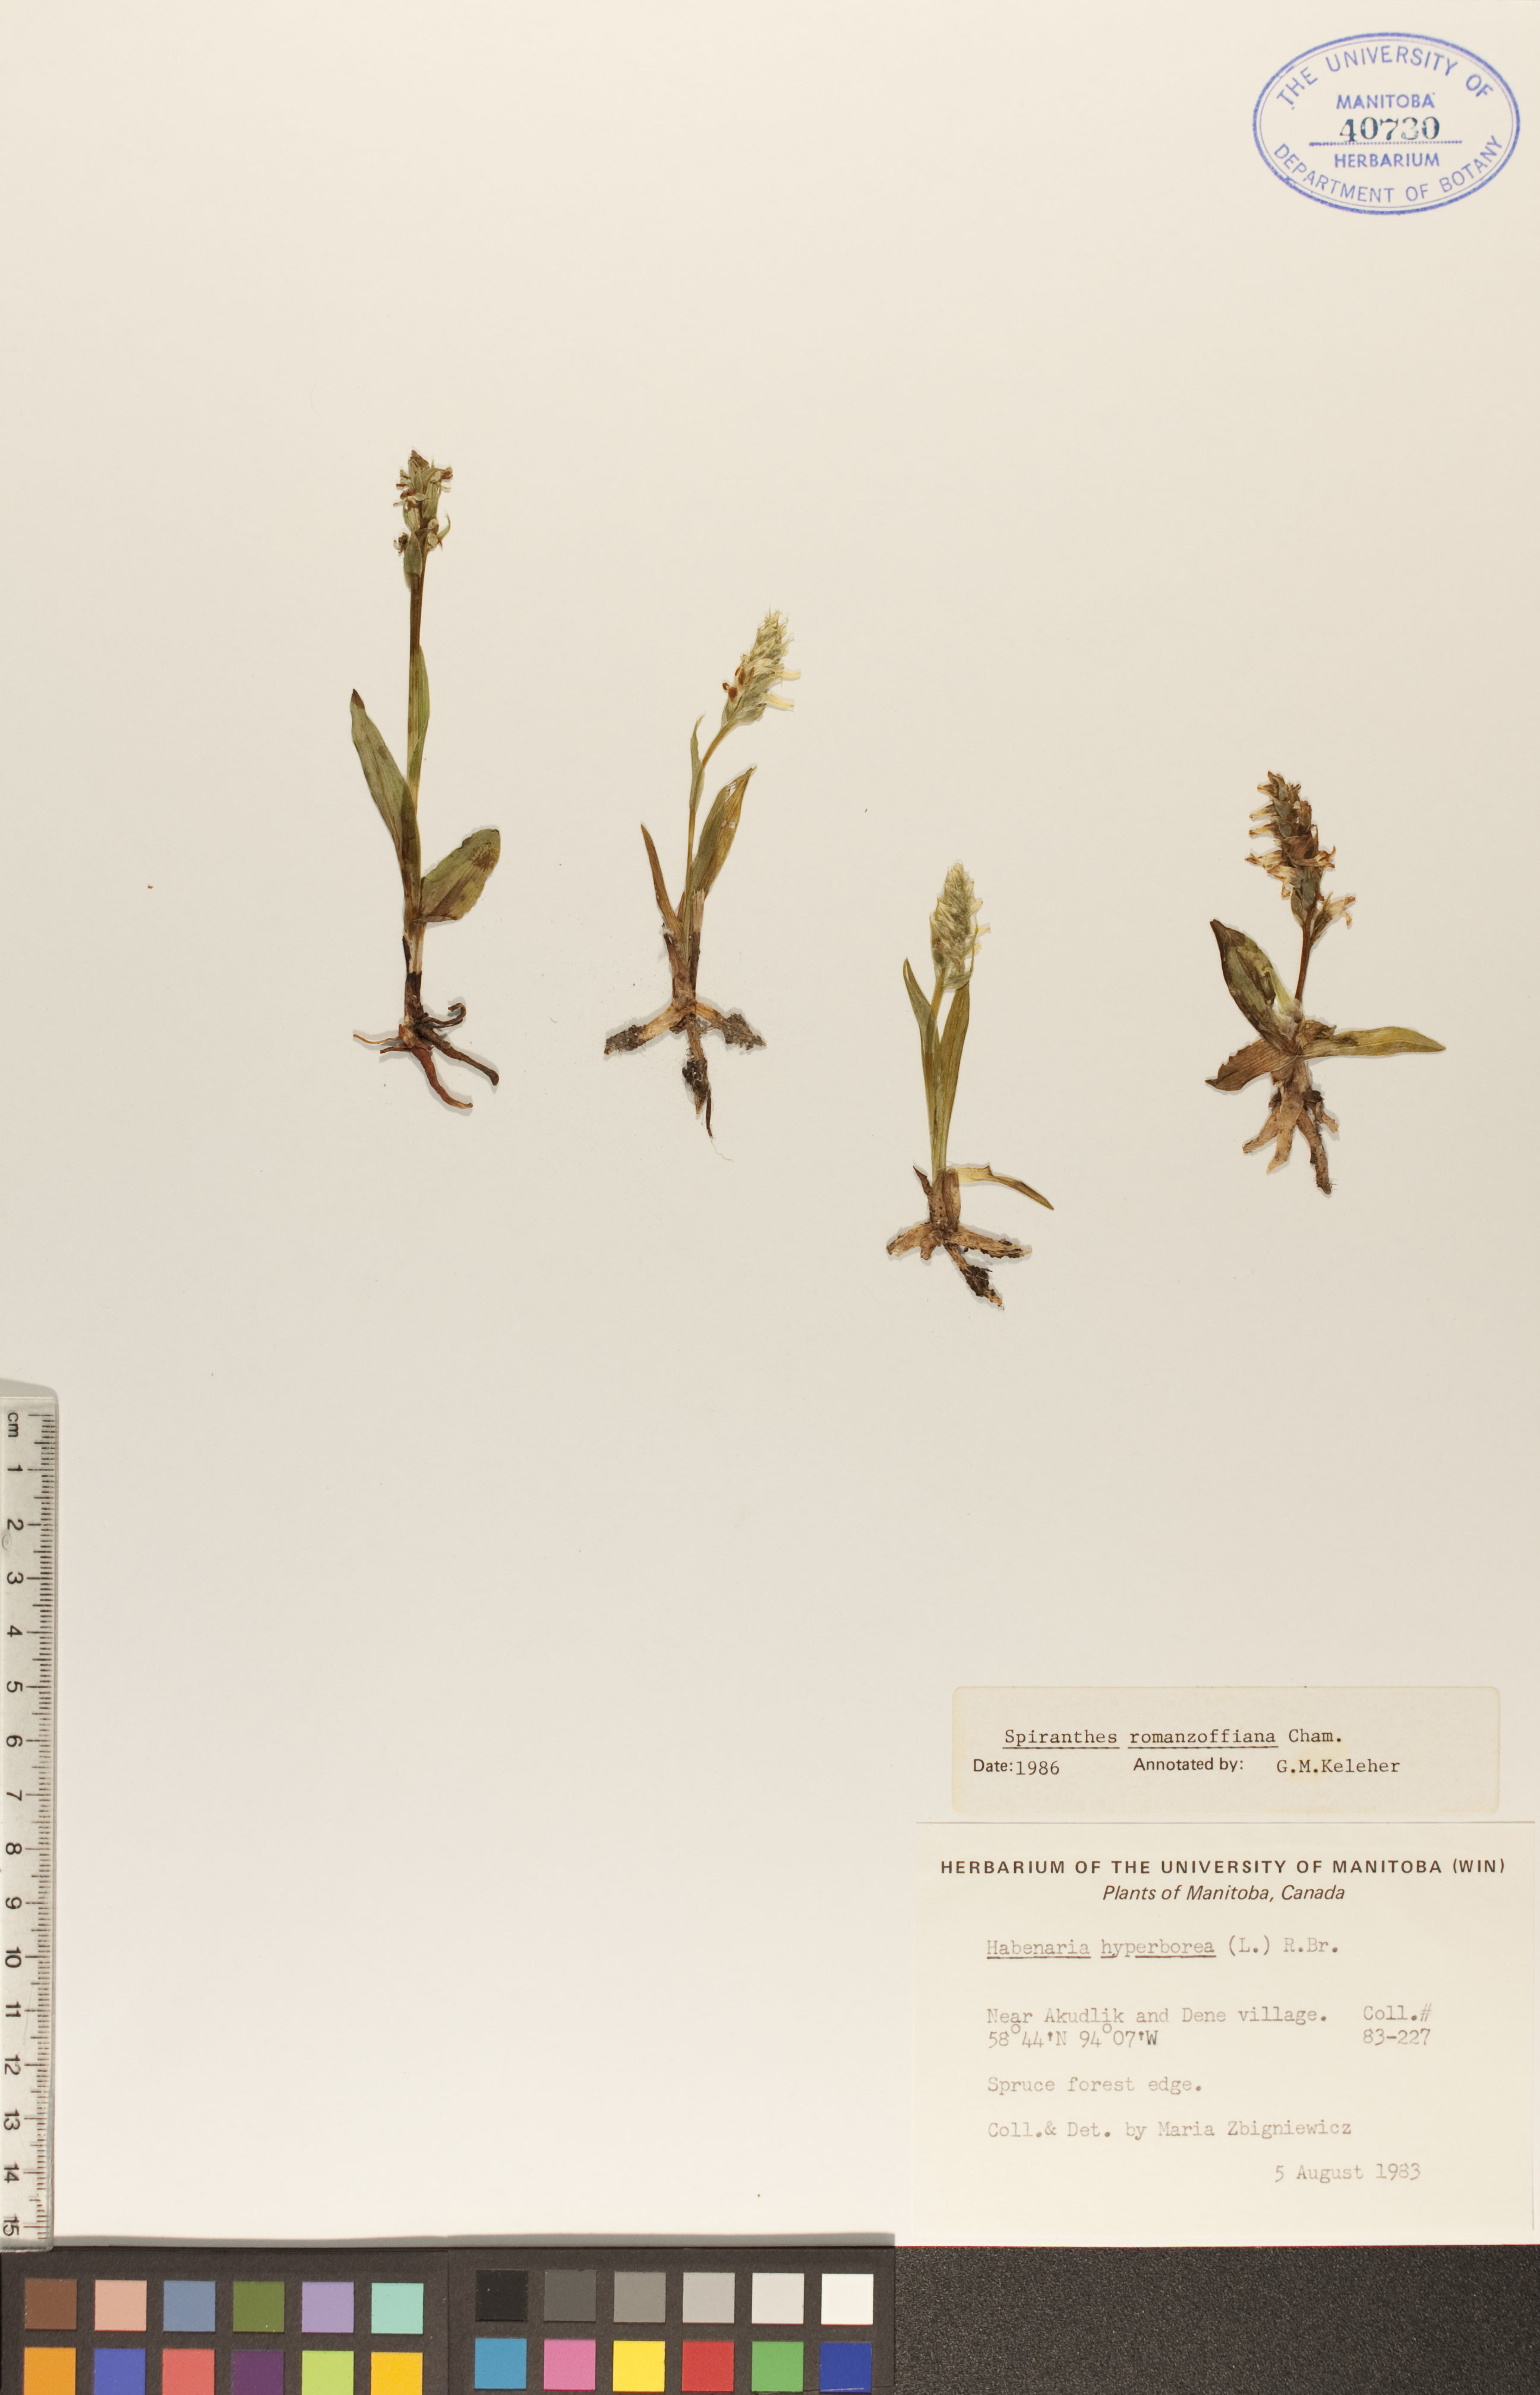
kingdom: Plantae
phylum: Tracheophyta
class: Liliopsida
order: Asparagales
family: Orchidaceae
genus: Spiranthes
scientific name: Spiranthes romanzoffiana
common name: Irish lady's-tresses
